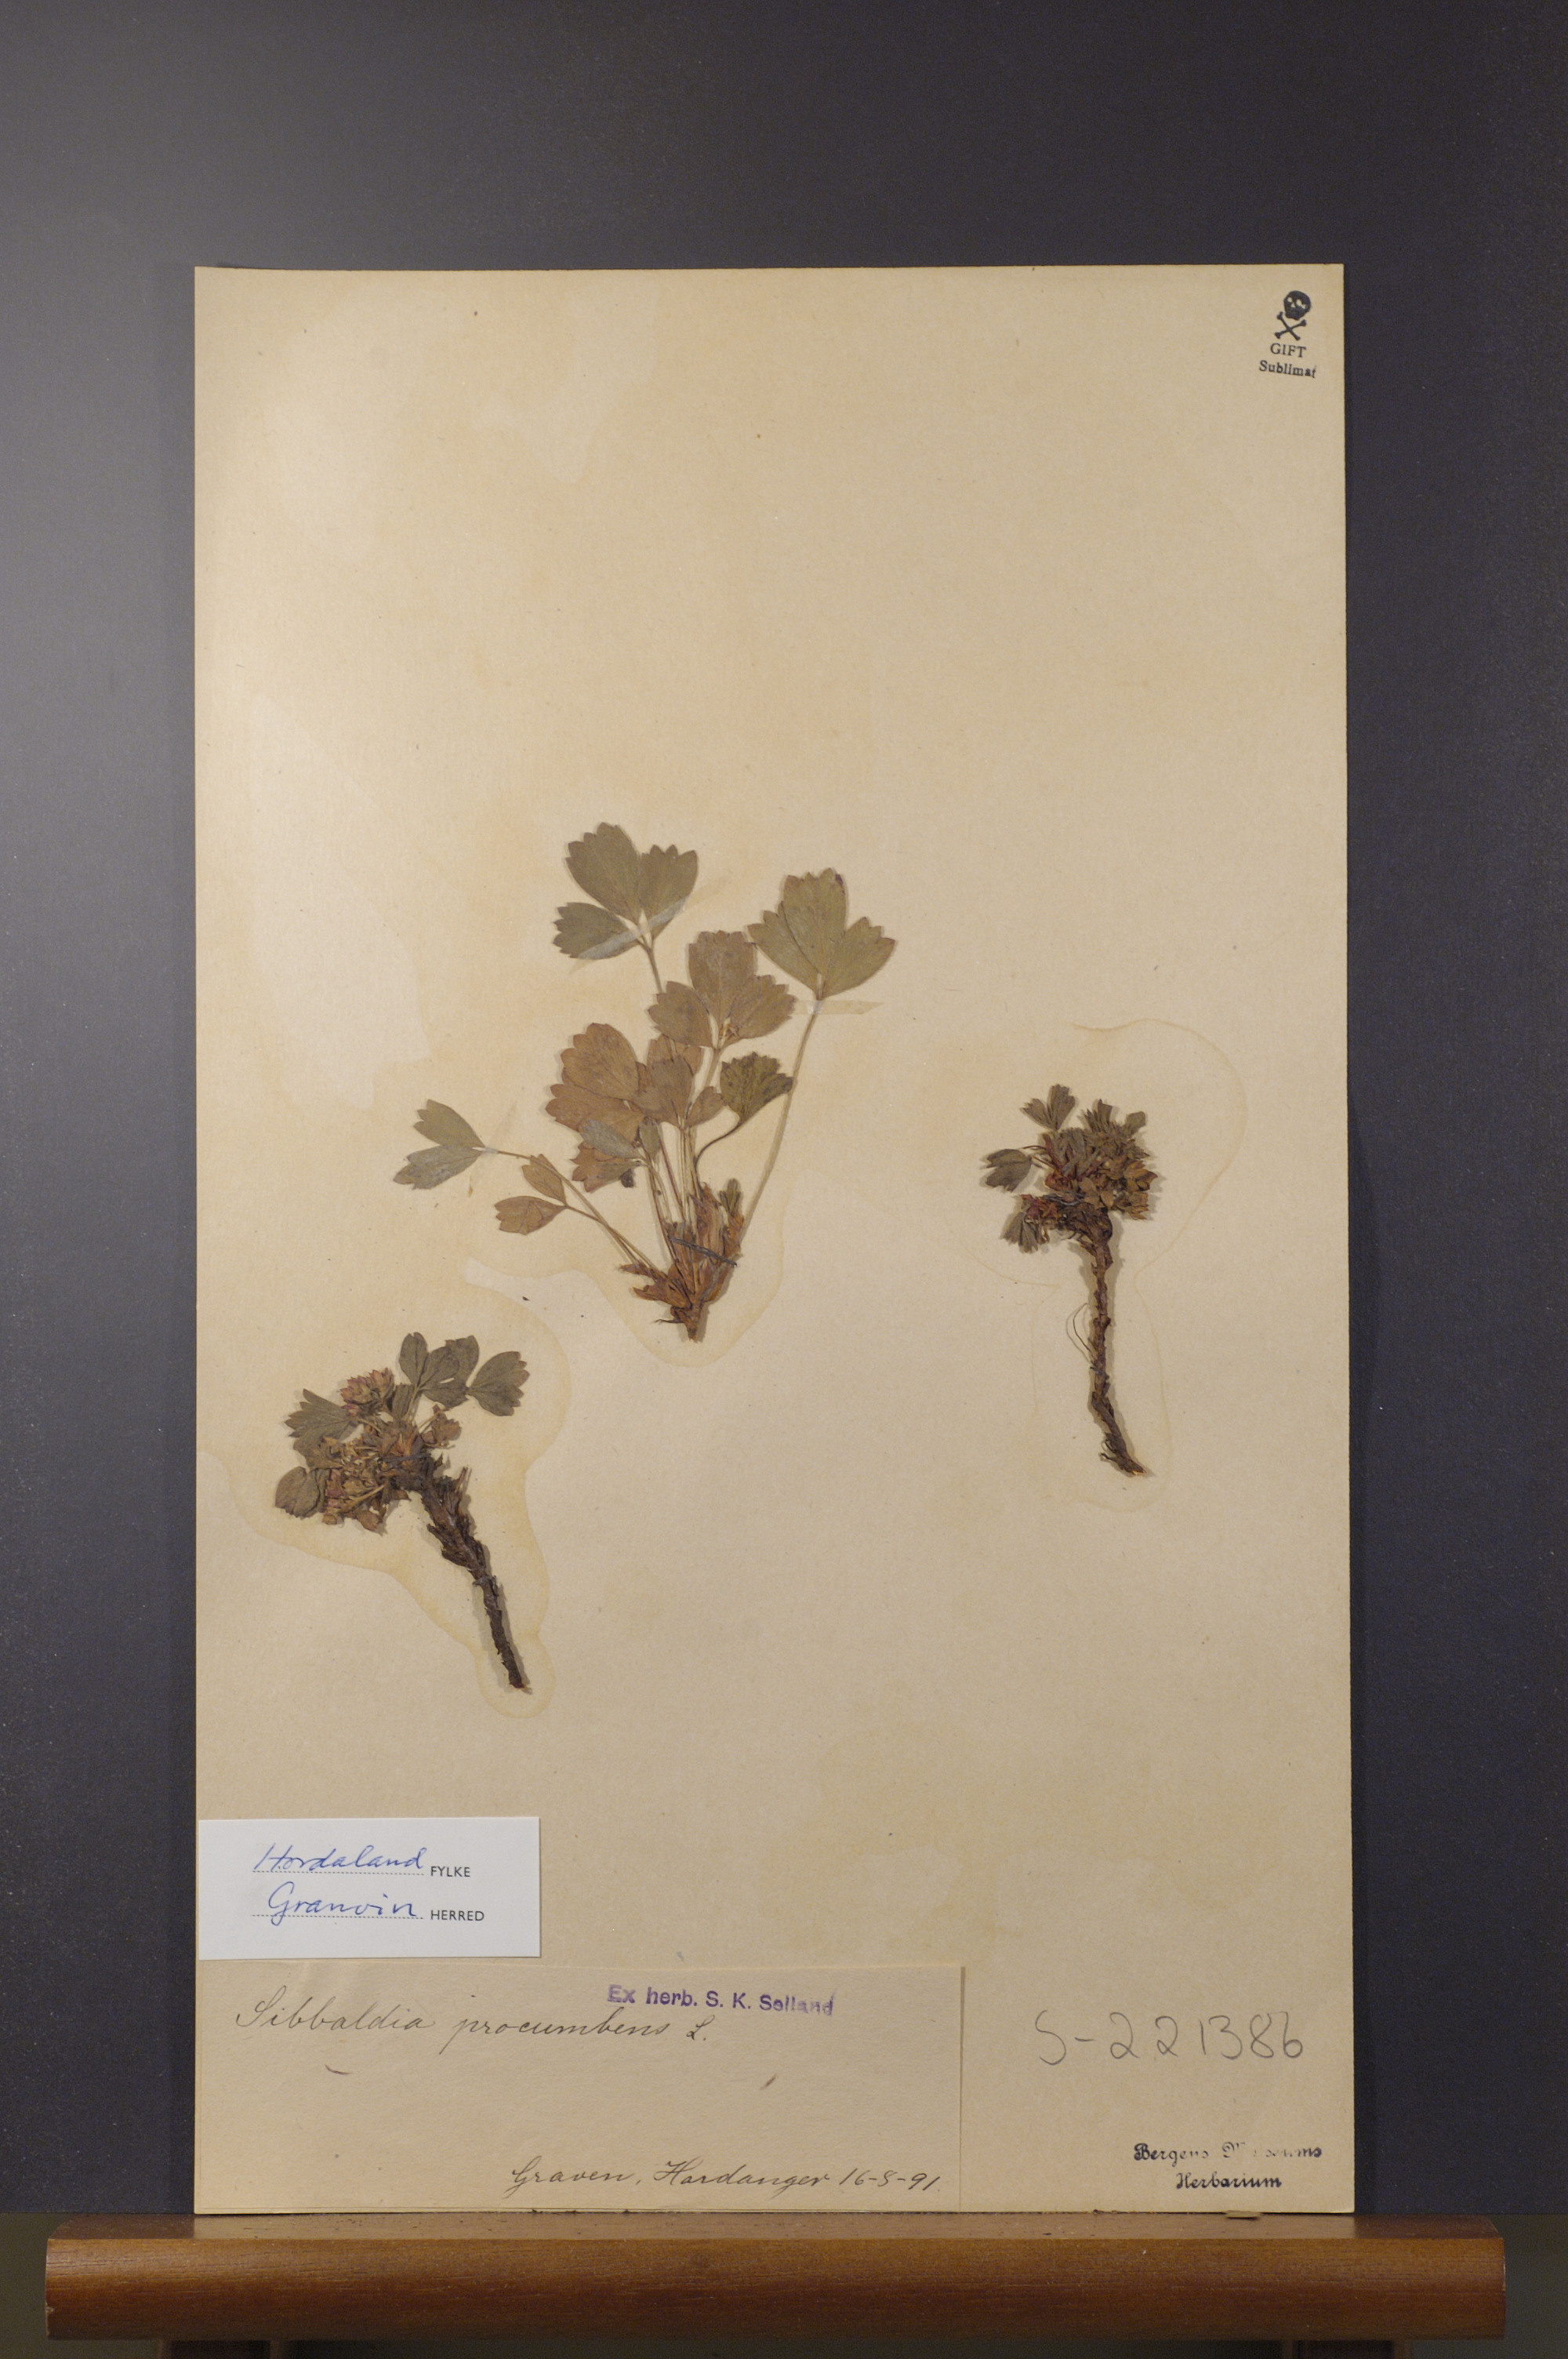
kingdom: Plantae
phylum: Tracheophyta
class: Magnoliopsida
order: Rosales
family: Rosaceae
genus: Sibbaldia
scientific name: Sibbaldia procumbens
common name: Creeping sibbaldia
